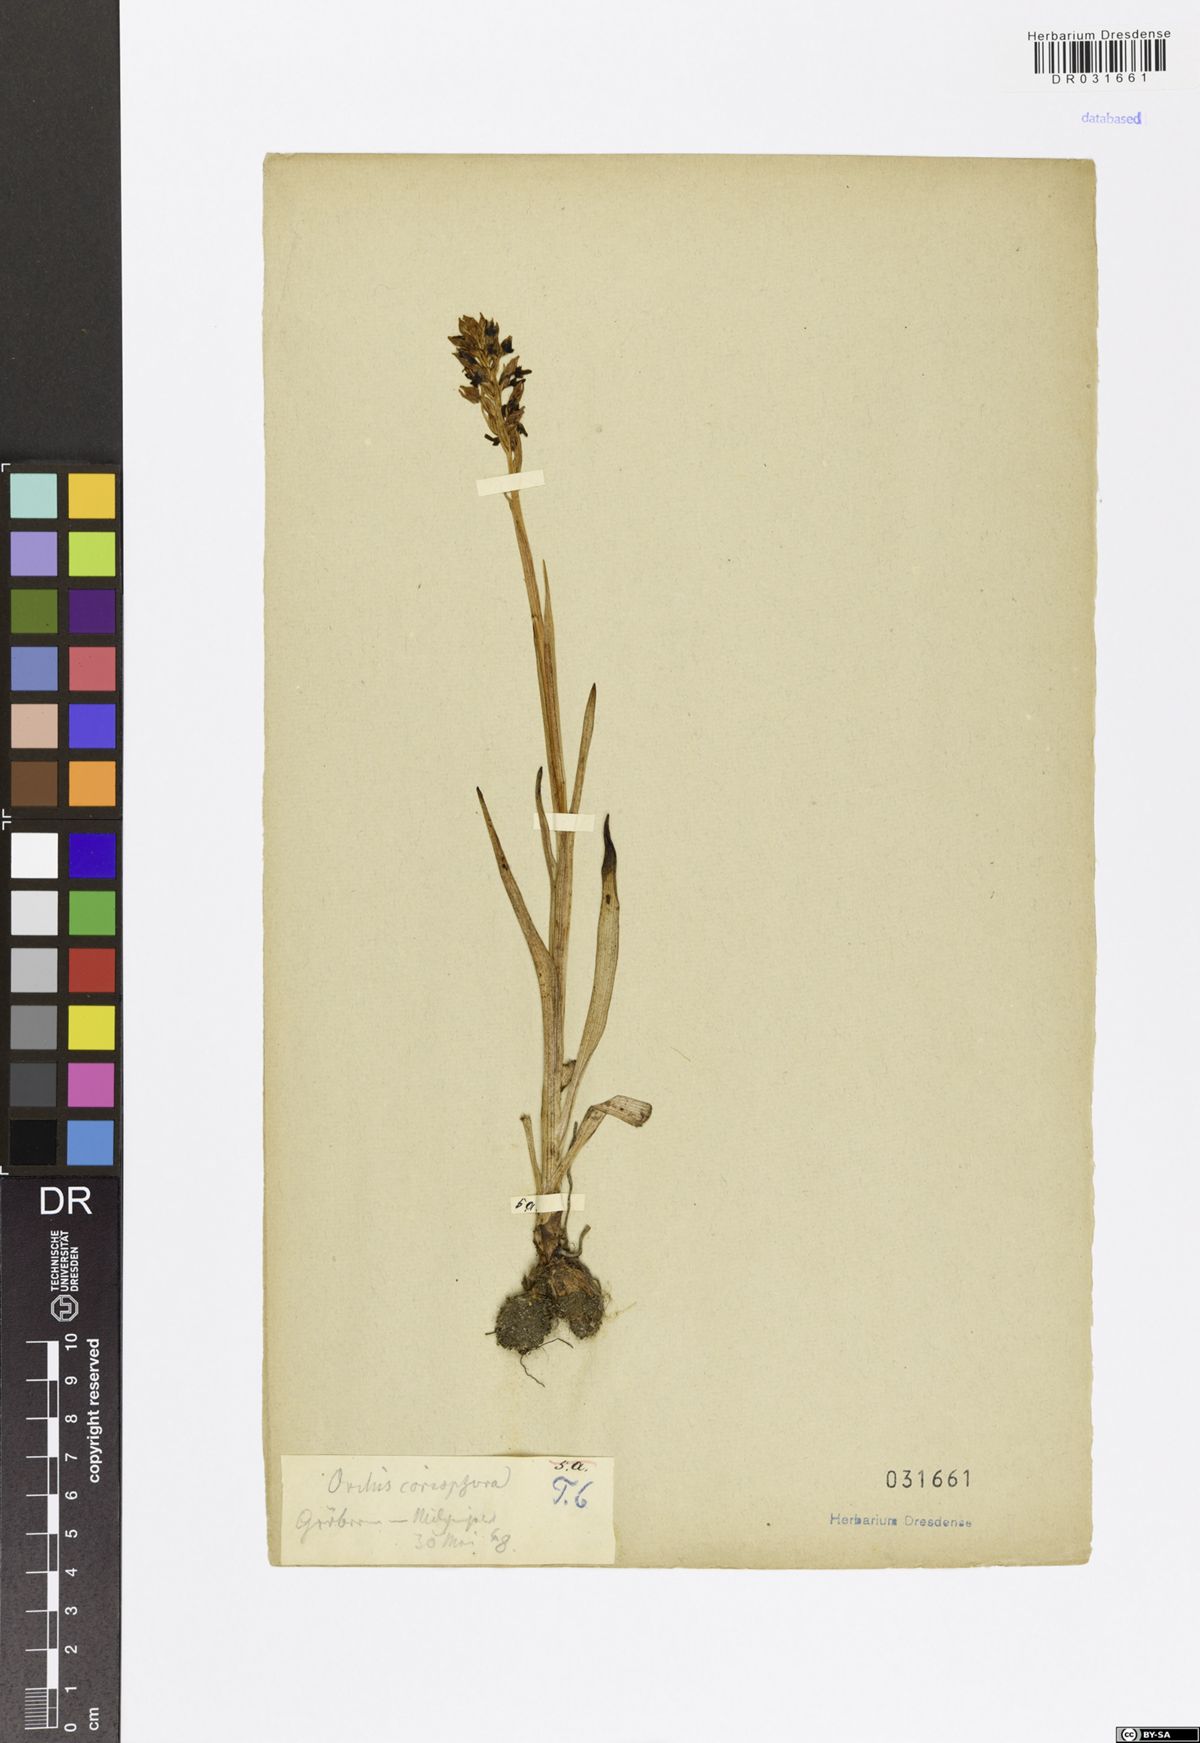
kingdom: Plantae
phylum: Tracheophyta
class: Liliopsida
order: Asparagales
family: Orchidaceae
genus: Anacamptis
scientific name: Anacamptis coriophora
